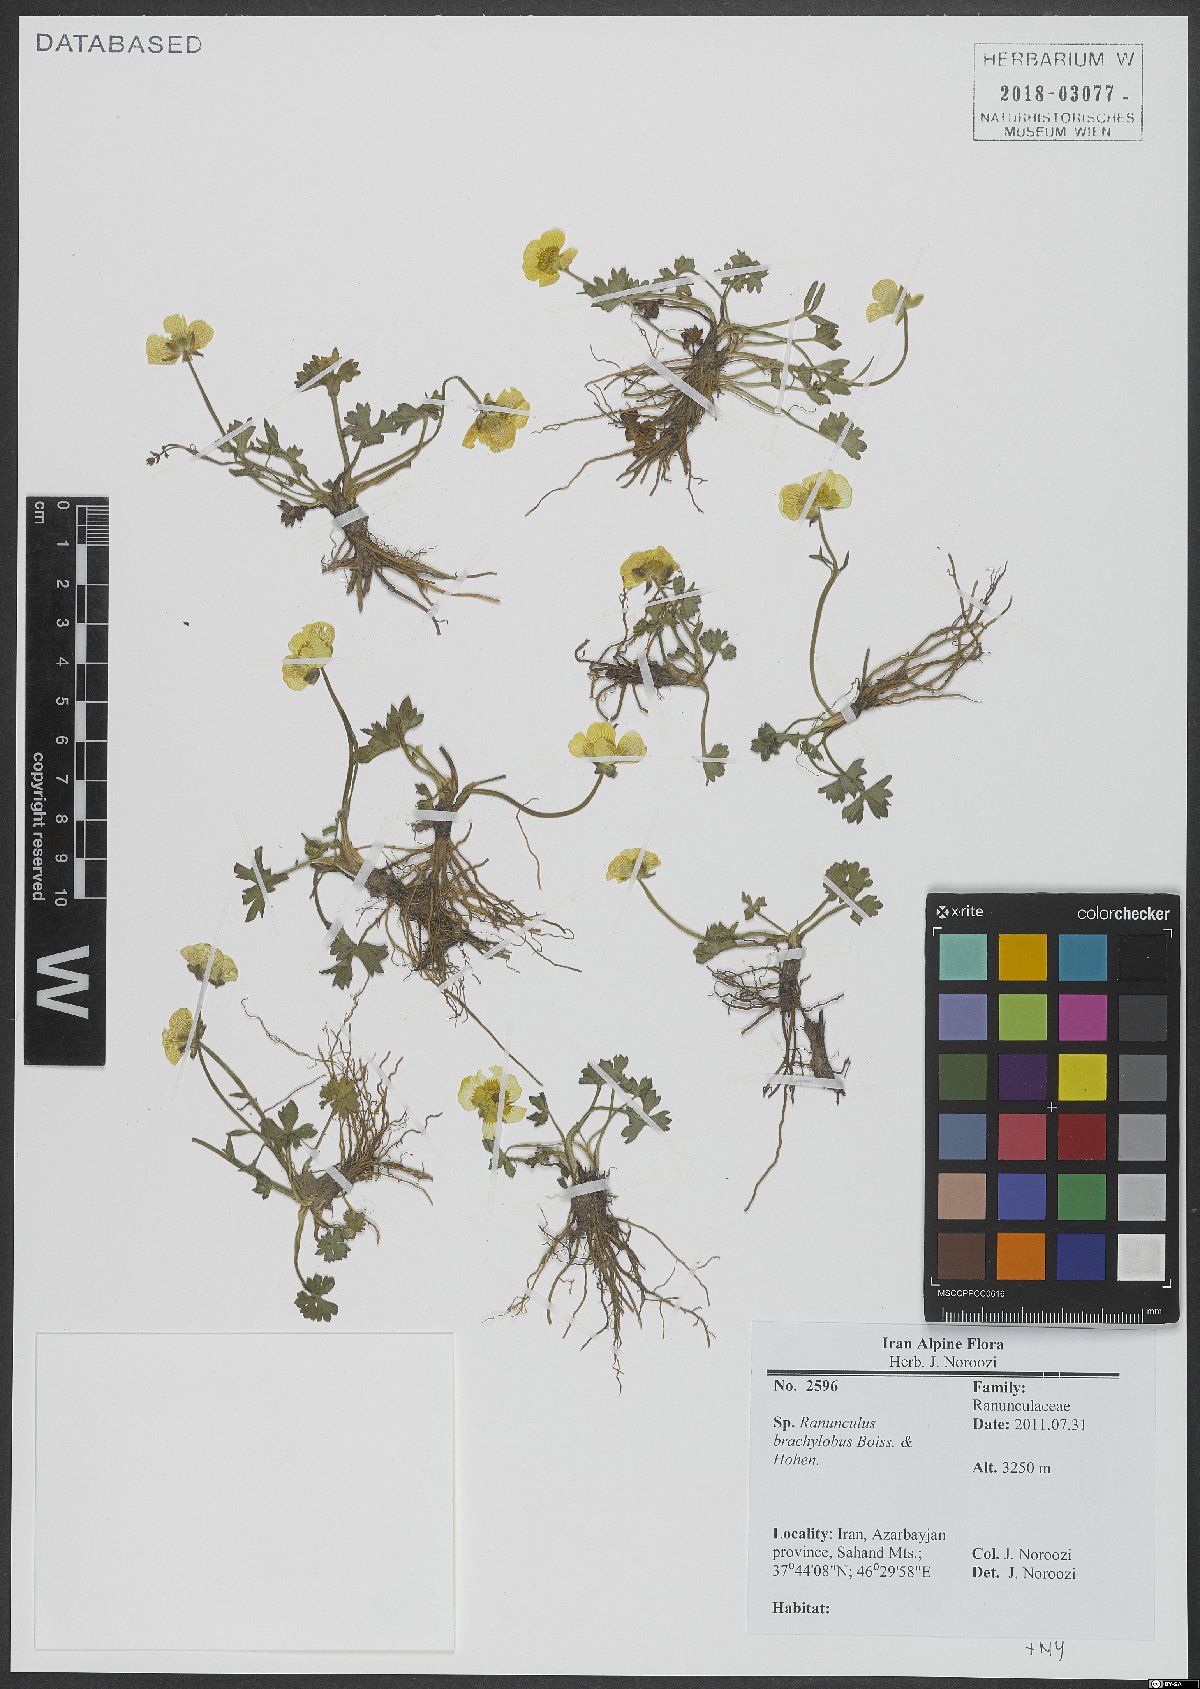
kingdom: Plantae
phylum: Tracheophyta
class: Magnoliopsida
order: Ranunculales
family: Ranunculaceae
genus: Ranunculus
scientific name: Ranunculus brachylobus
